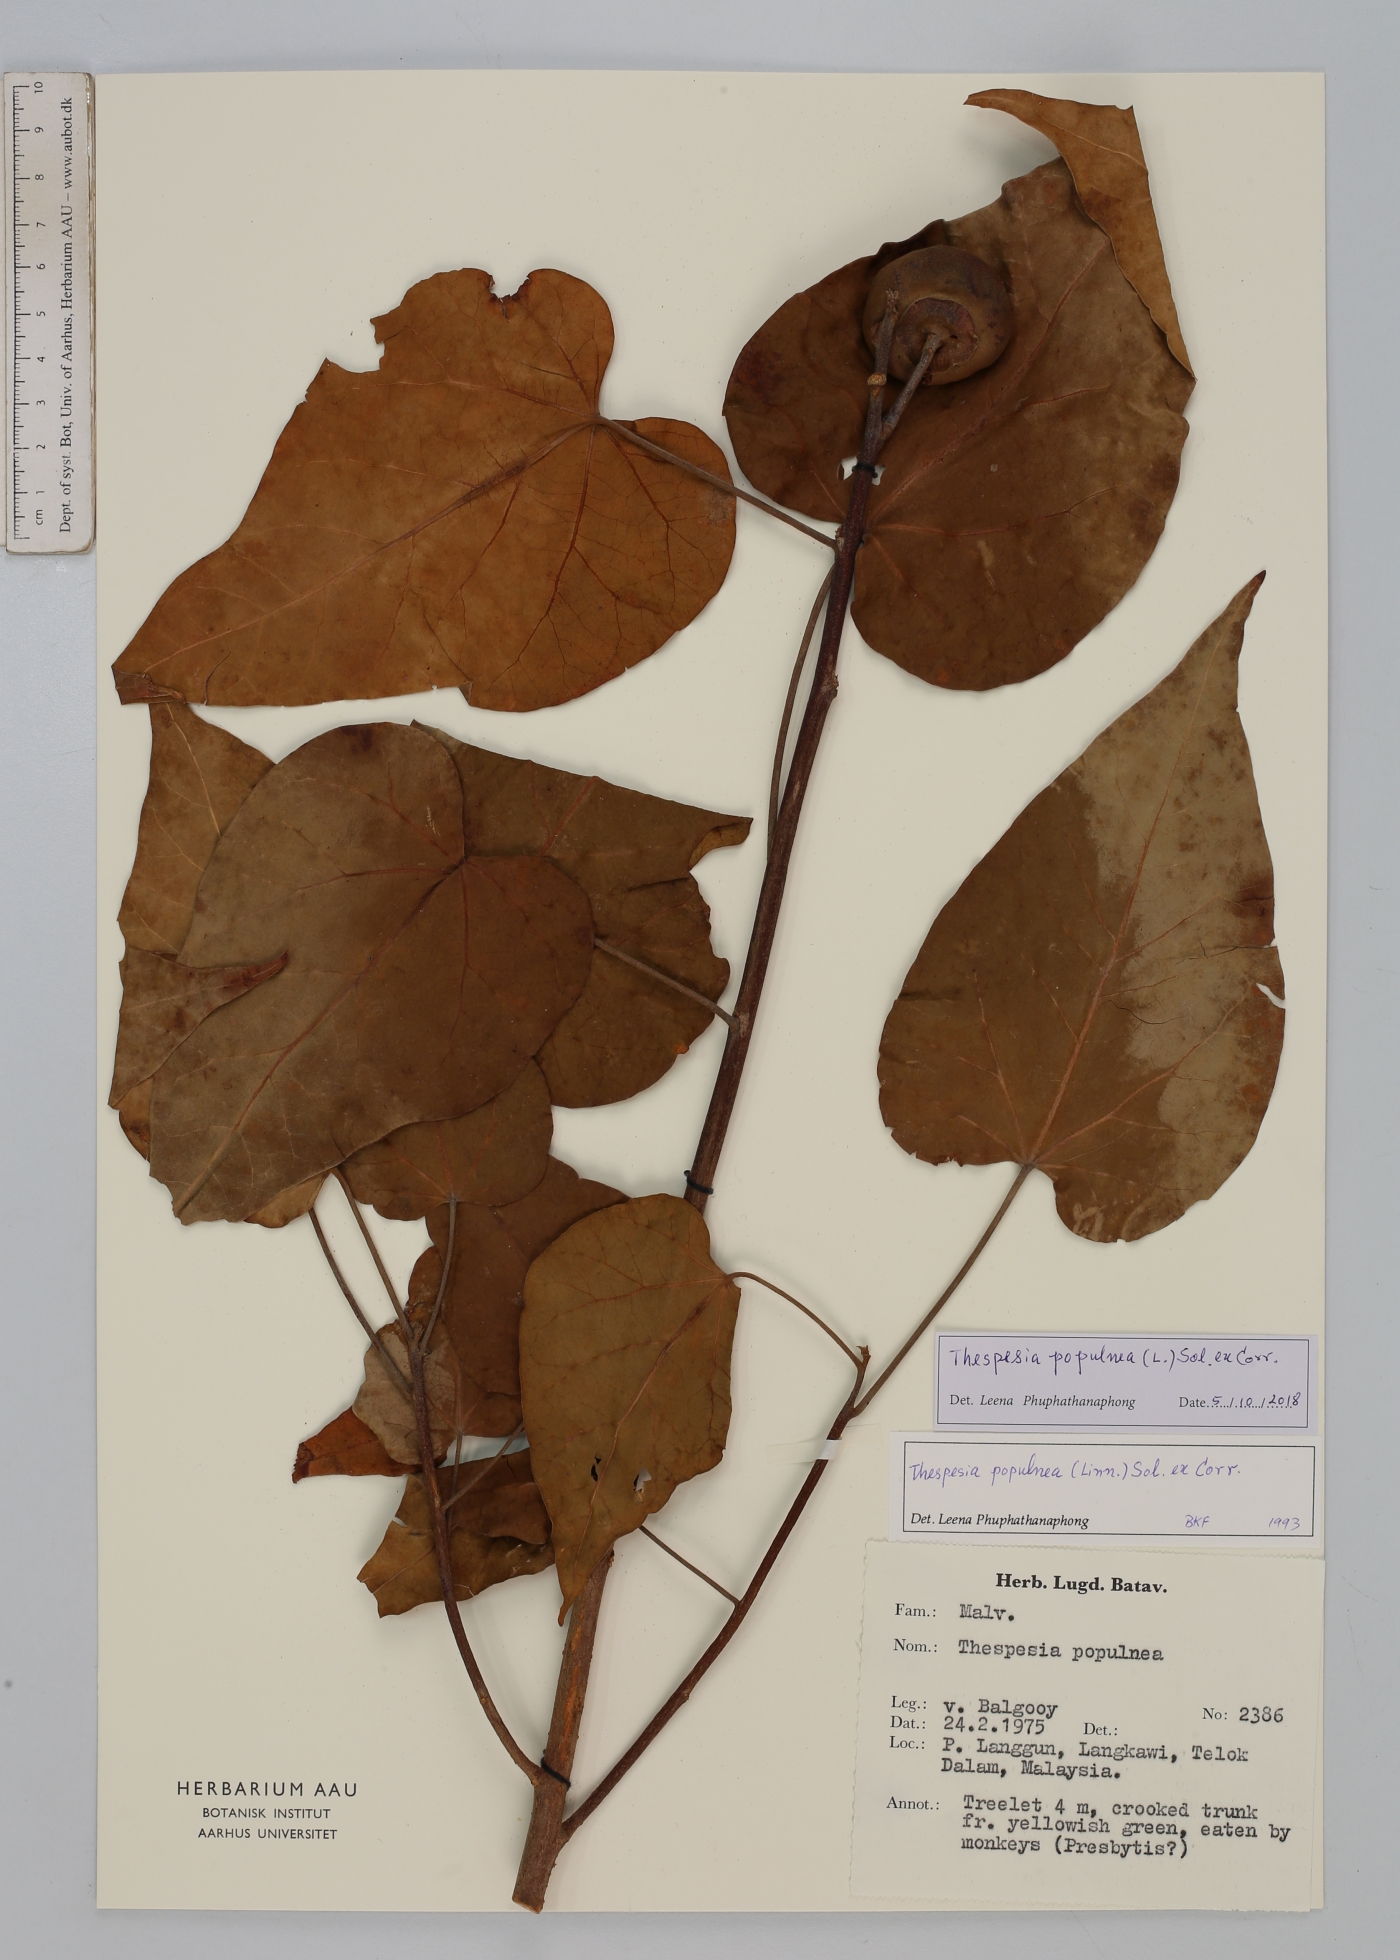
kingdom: Plantae
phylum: Tracheophyta
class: Magnoliopsida
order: Malvales
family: Malvaceae
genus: Thespesia
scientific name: Thespesia populnea
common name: Seaside mahoe
